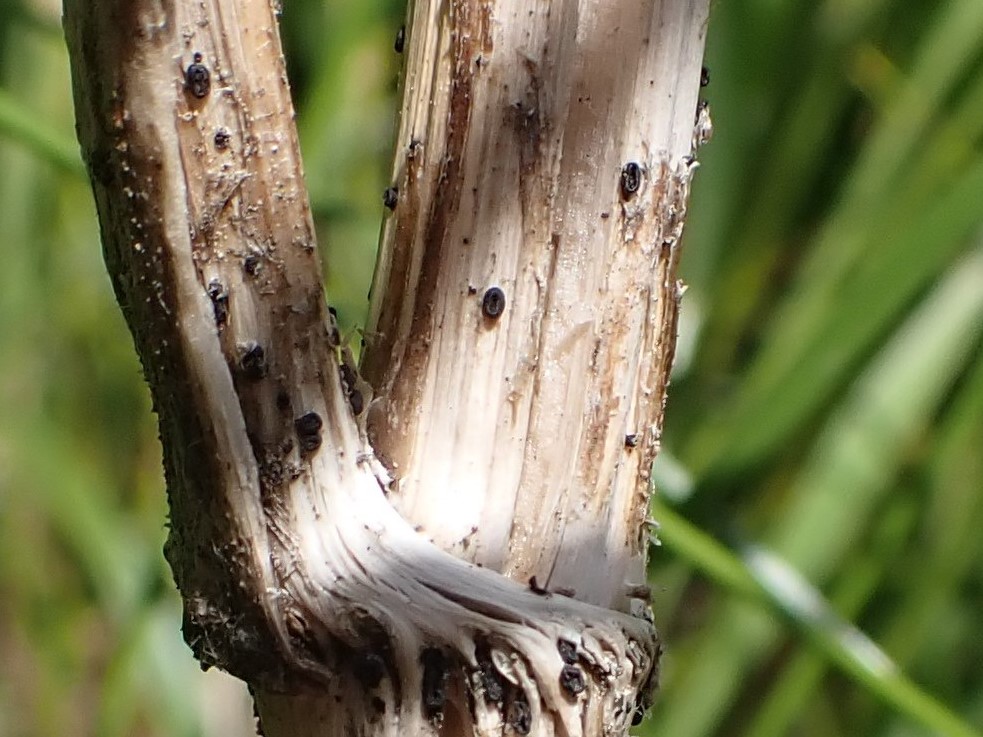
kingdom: Fungi
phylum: Ascomycota
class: Leotiomycetes
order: Helotiales
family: Heterosphaeriaceae
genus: Heterosphaeria
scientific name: Heterosphaeria
